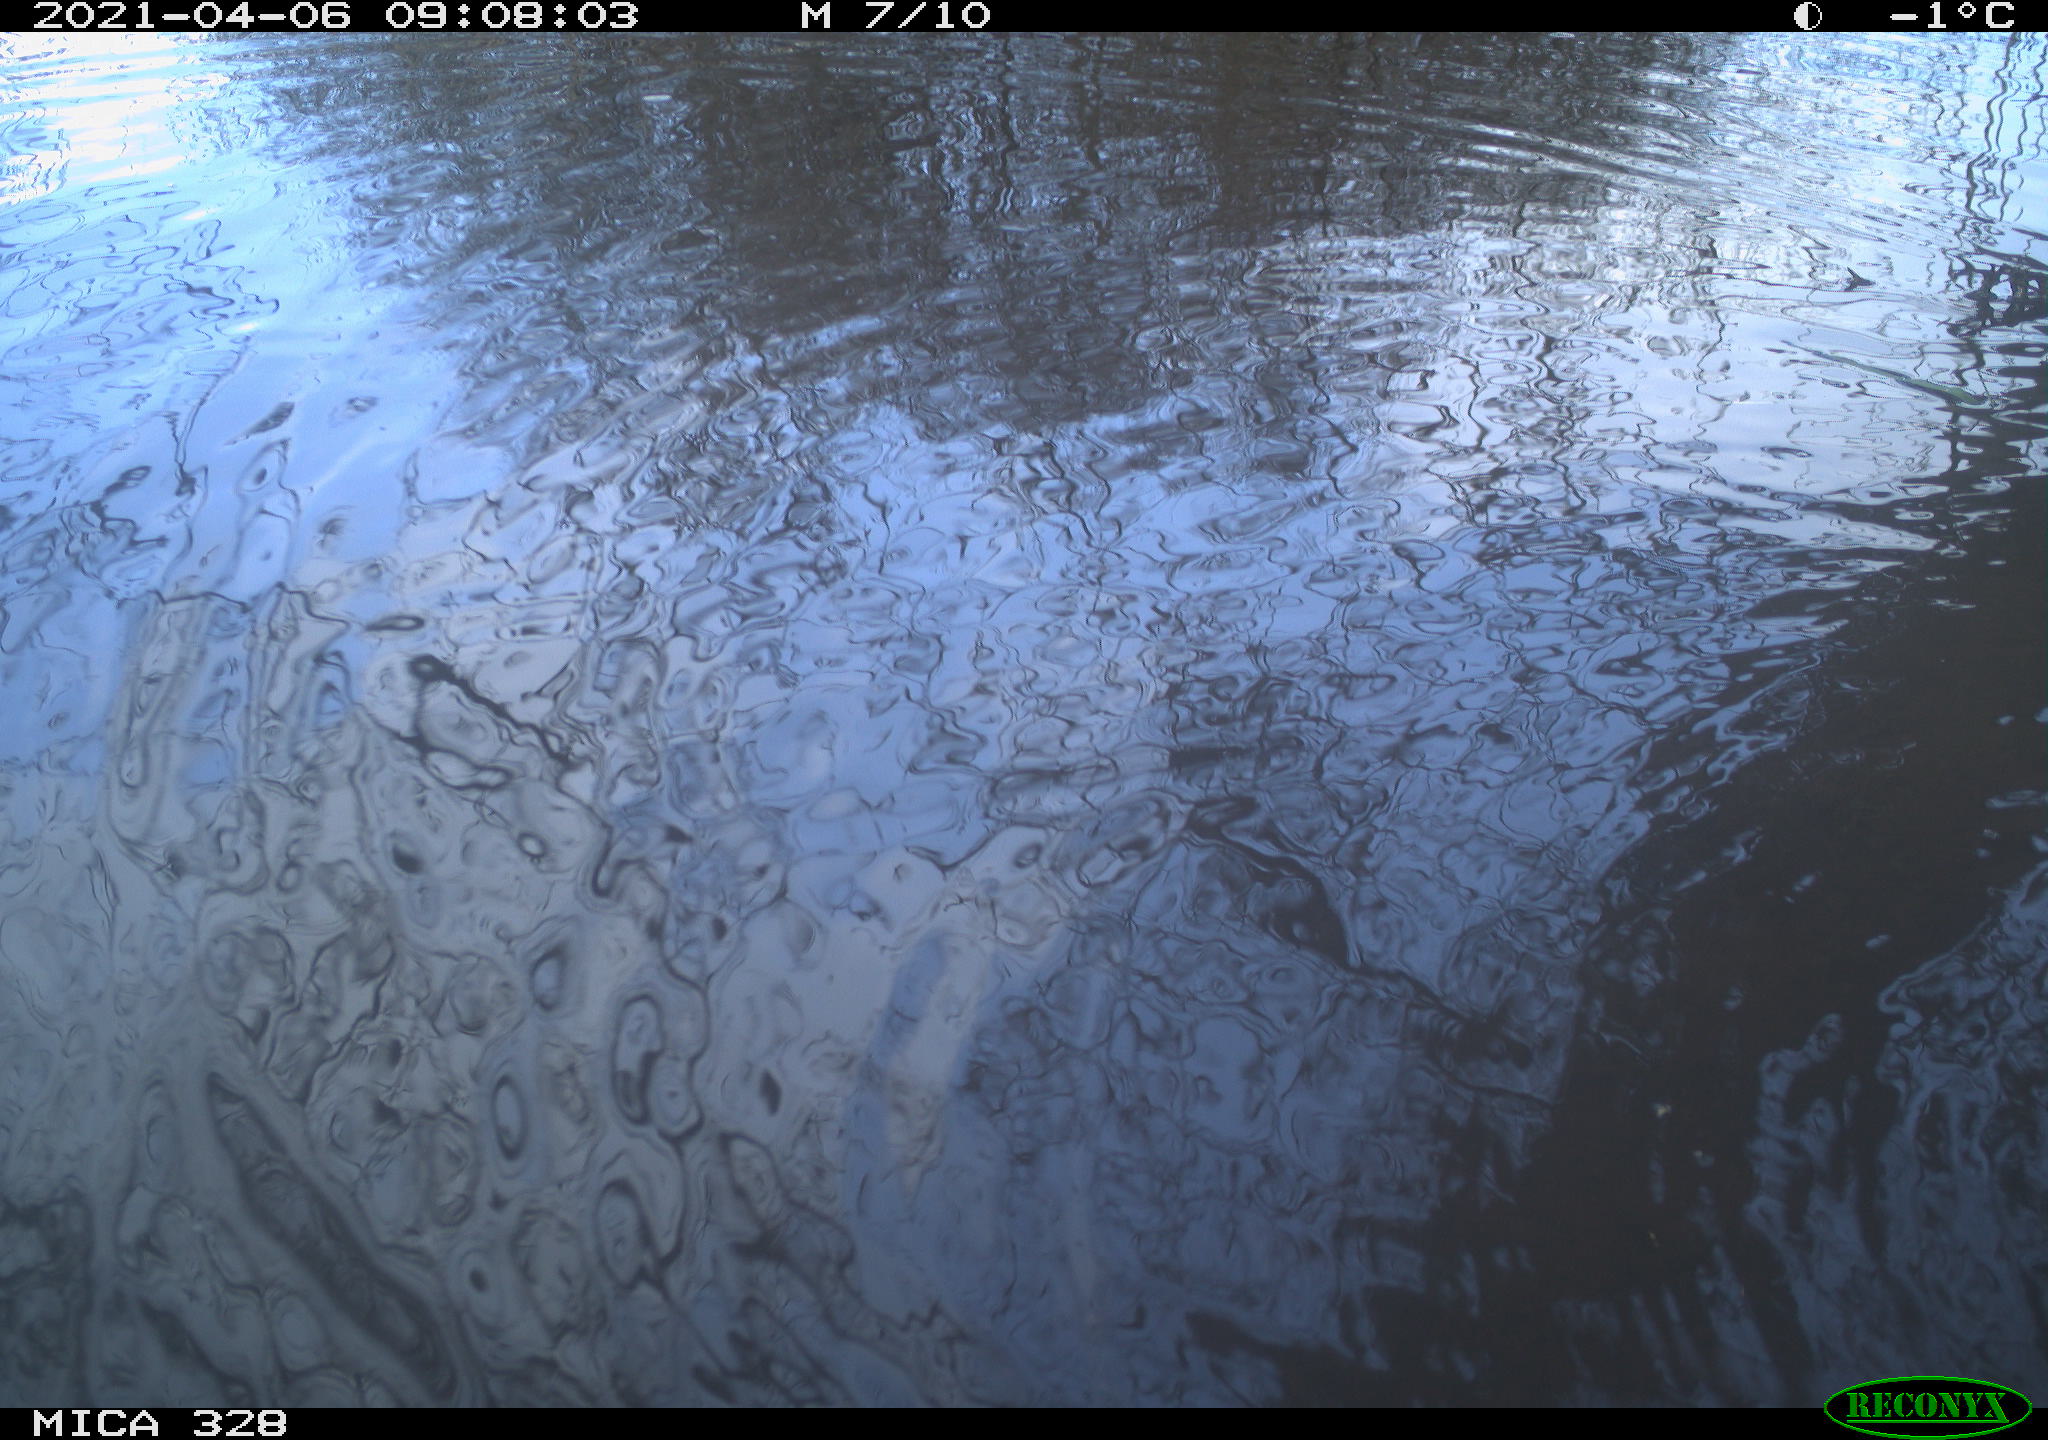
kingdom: Animalia
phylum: Chordata
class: Aves
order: Anseriformes
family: Anatidae
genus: Anas
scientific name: Anas platyrhynchos
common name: Mallard
